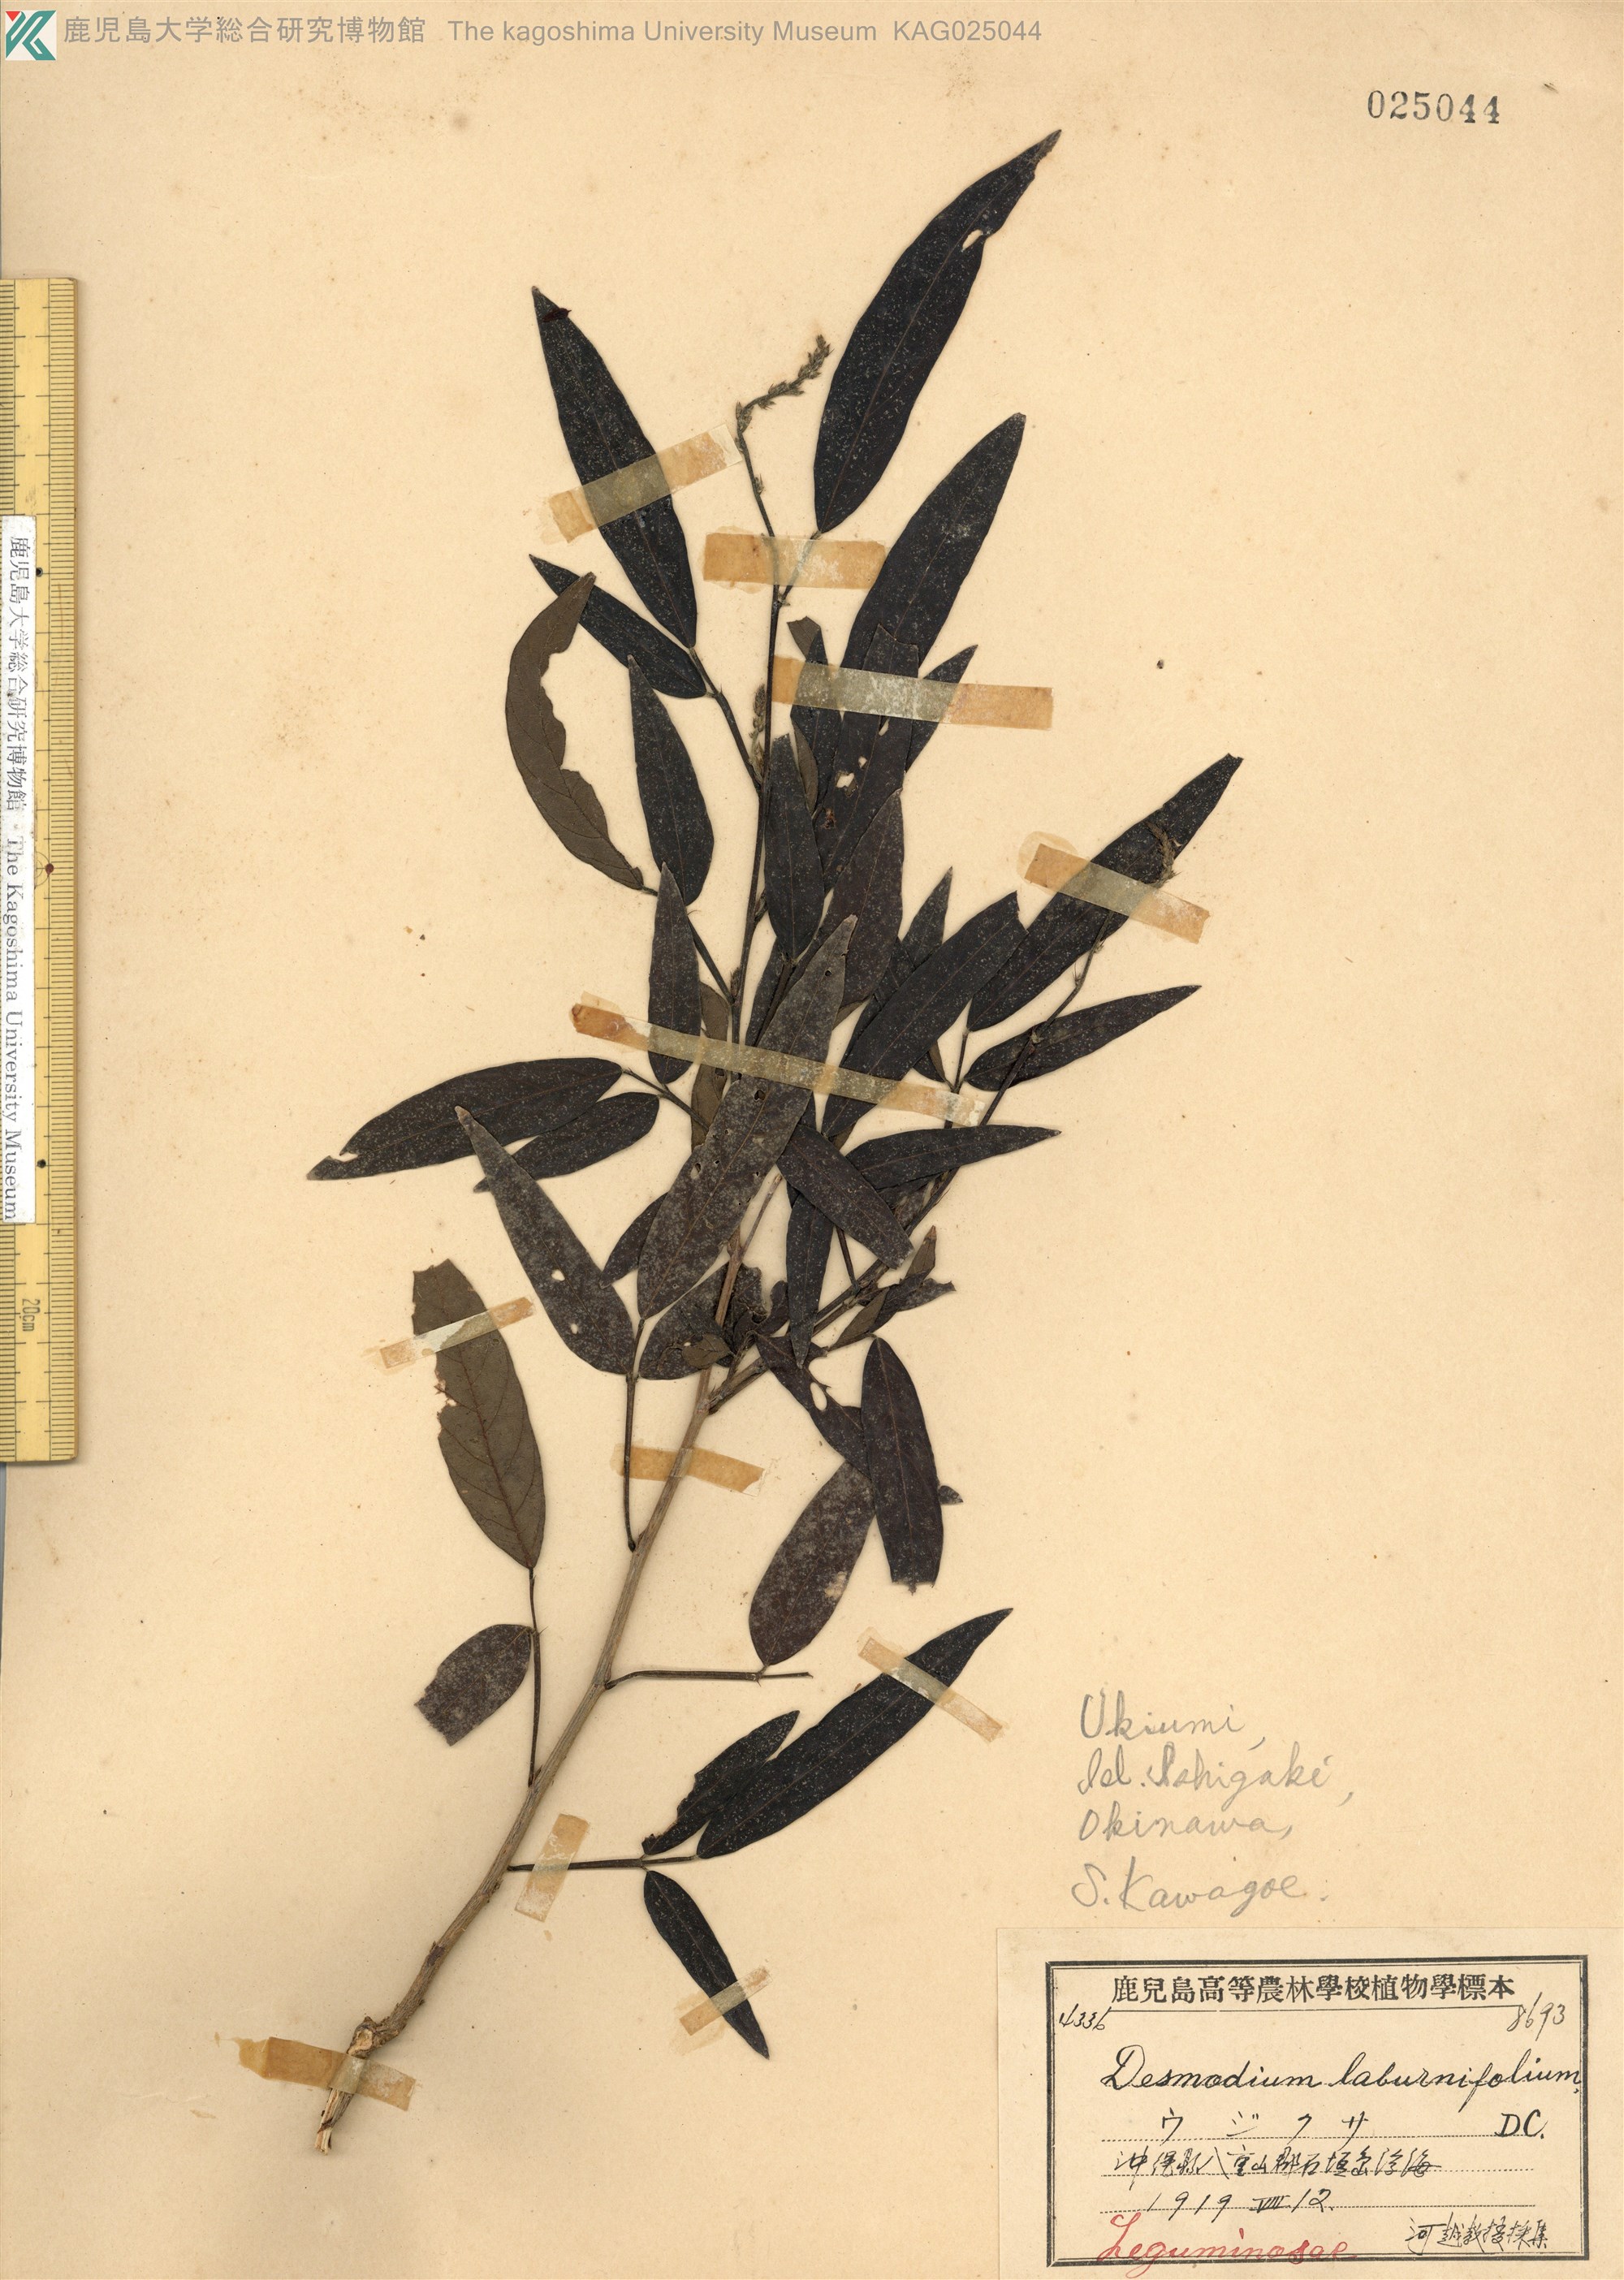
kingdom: Plantae
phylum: Tracheophyta
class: Magnoliopsida
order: Fabales
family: Fabaceae
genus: Ohwia
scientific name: Ohwia caudata
